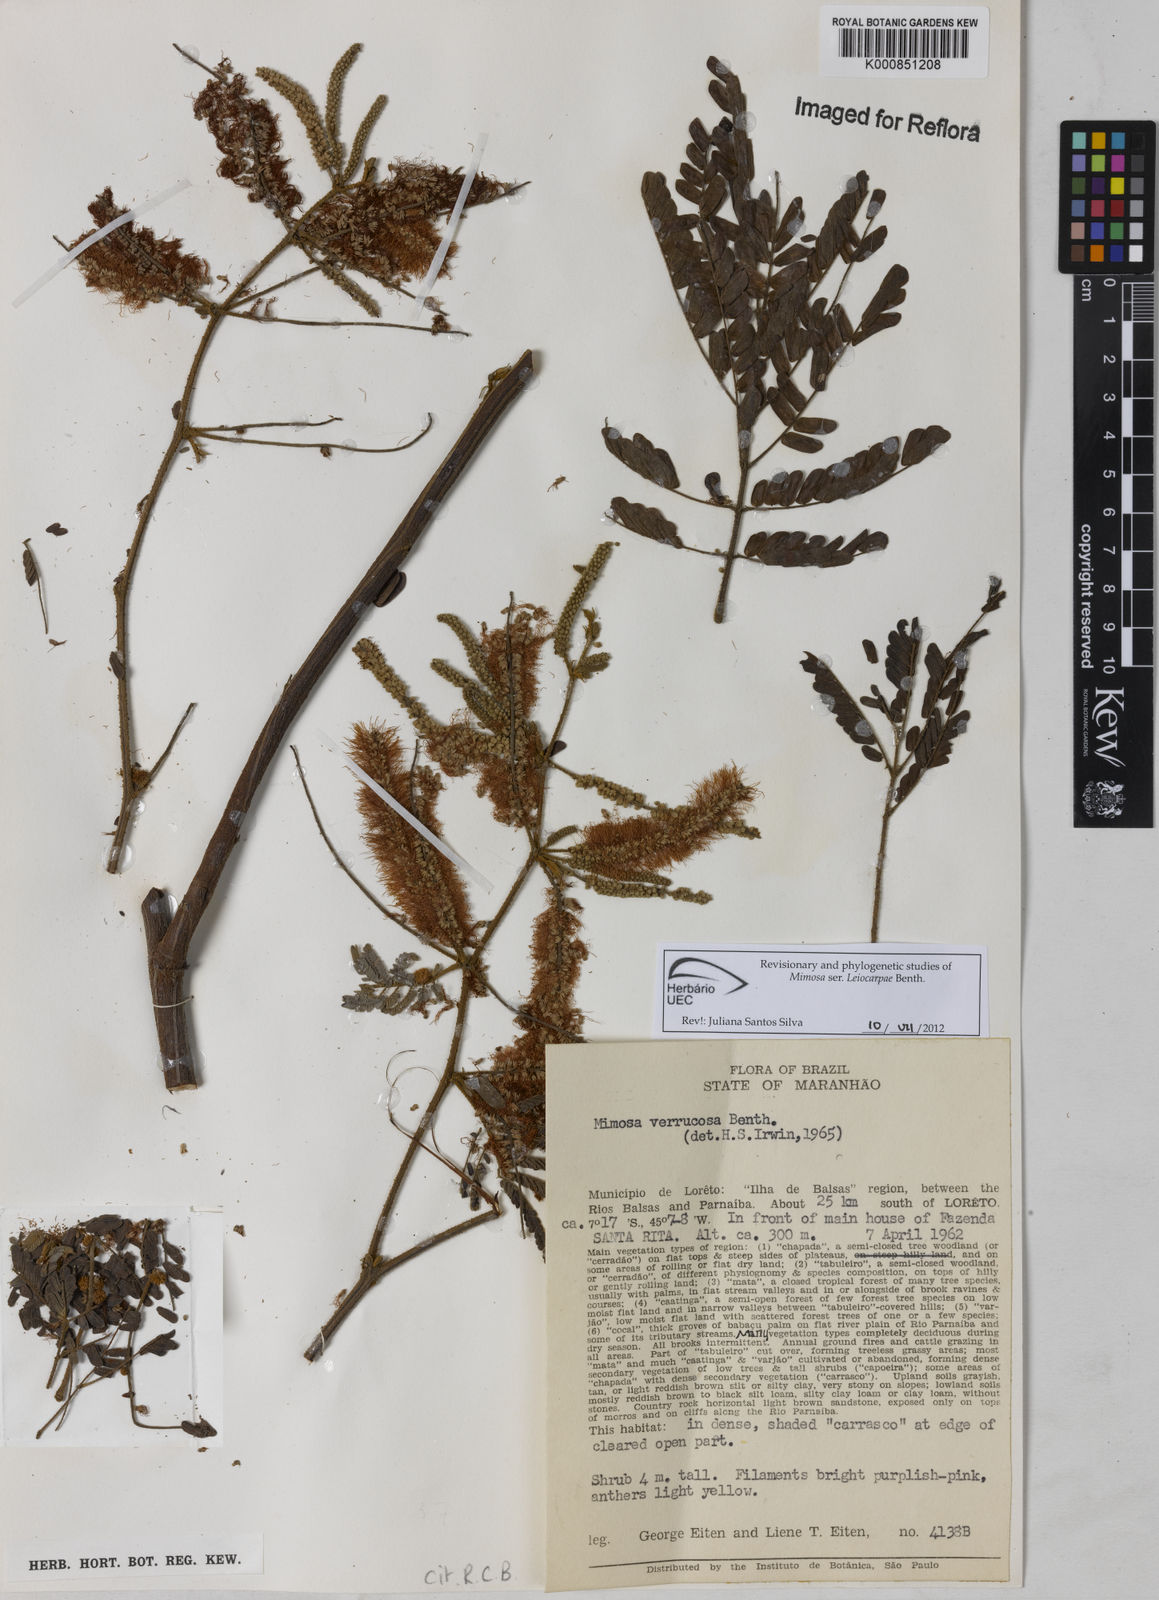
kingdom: Plantae
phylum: Tracheophyta
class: Magnoliopsida
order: Fabales
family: Fabaceae
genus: Mimosa
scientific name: Mimosa verrucosa
